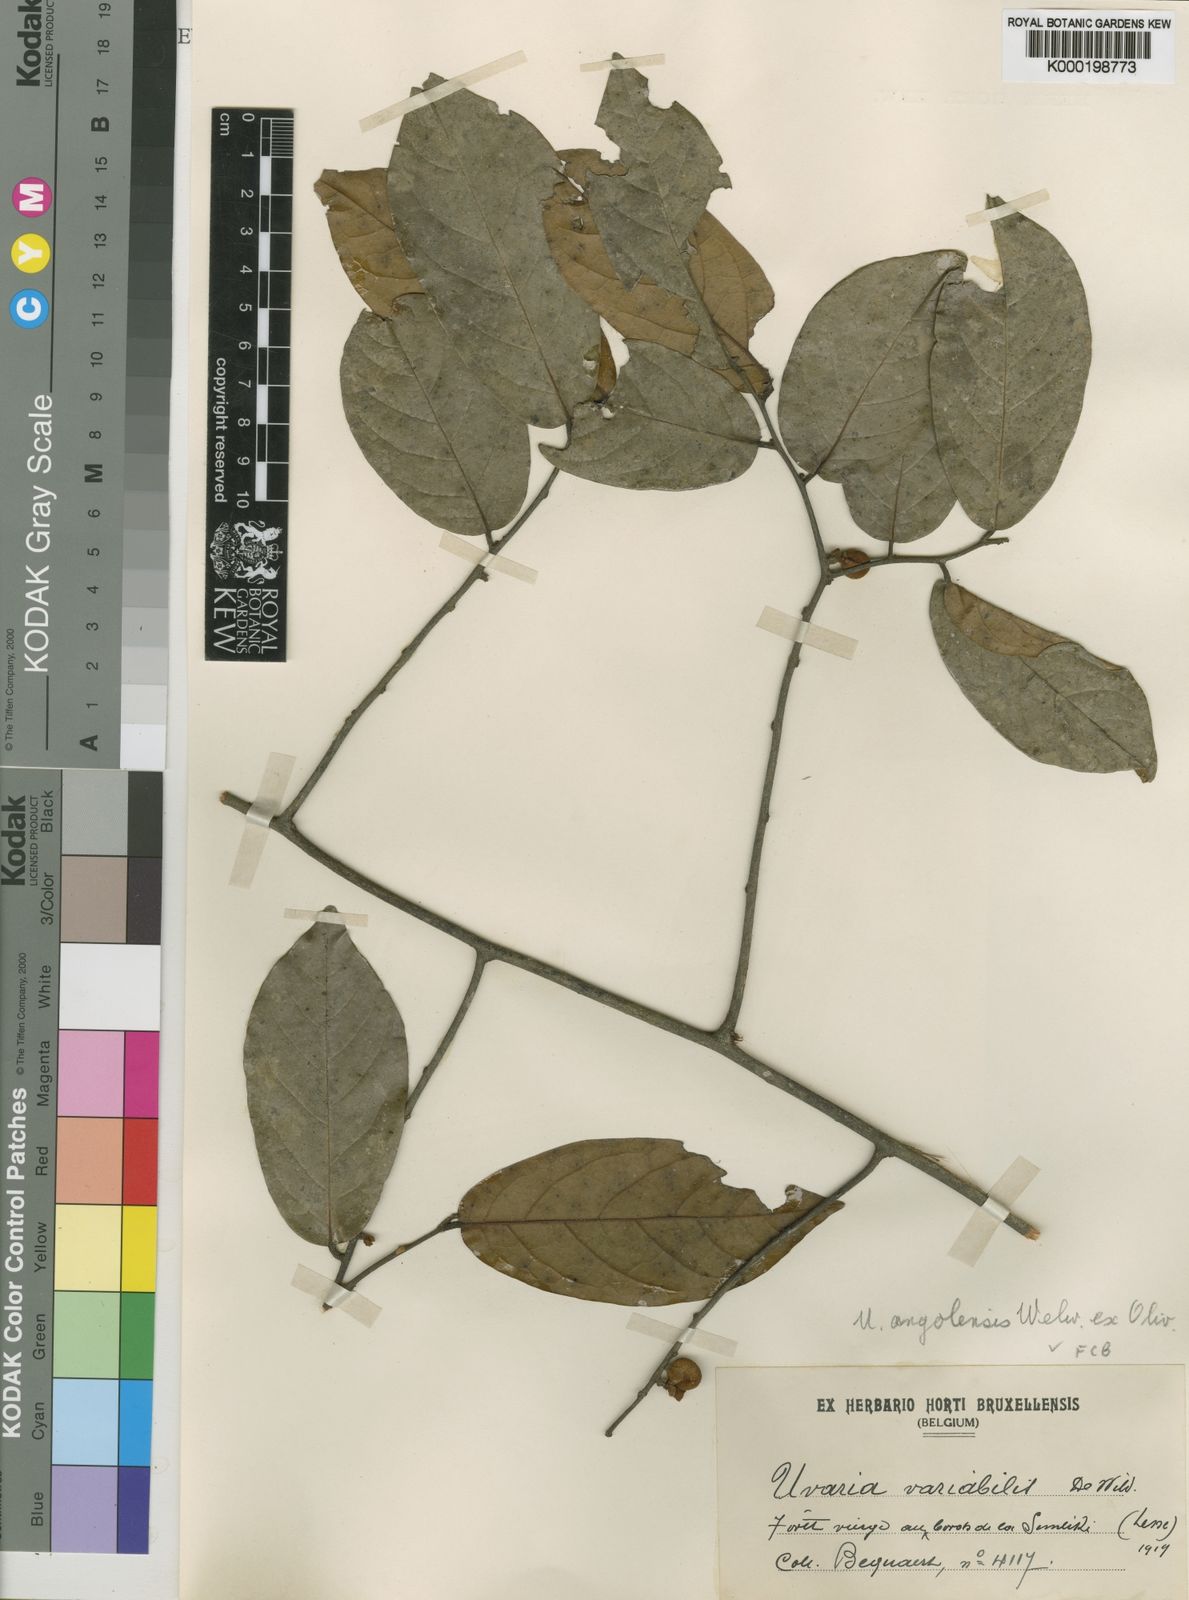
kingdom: Plantae
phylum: Tracheophyta
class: Magnoliopsida
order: Magnoliales
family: Annonaceae
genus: Uvaria
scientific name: Uvaria angolensis
